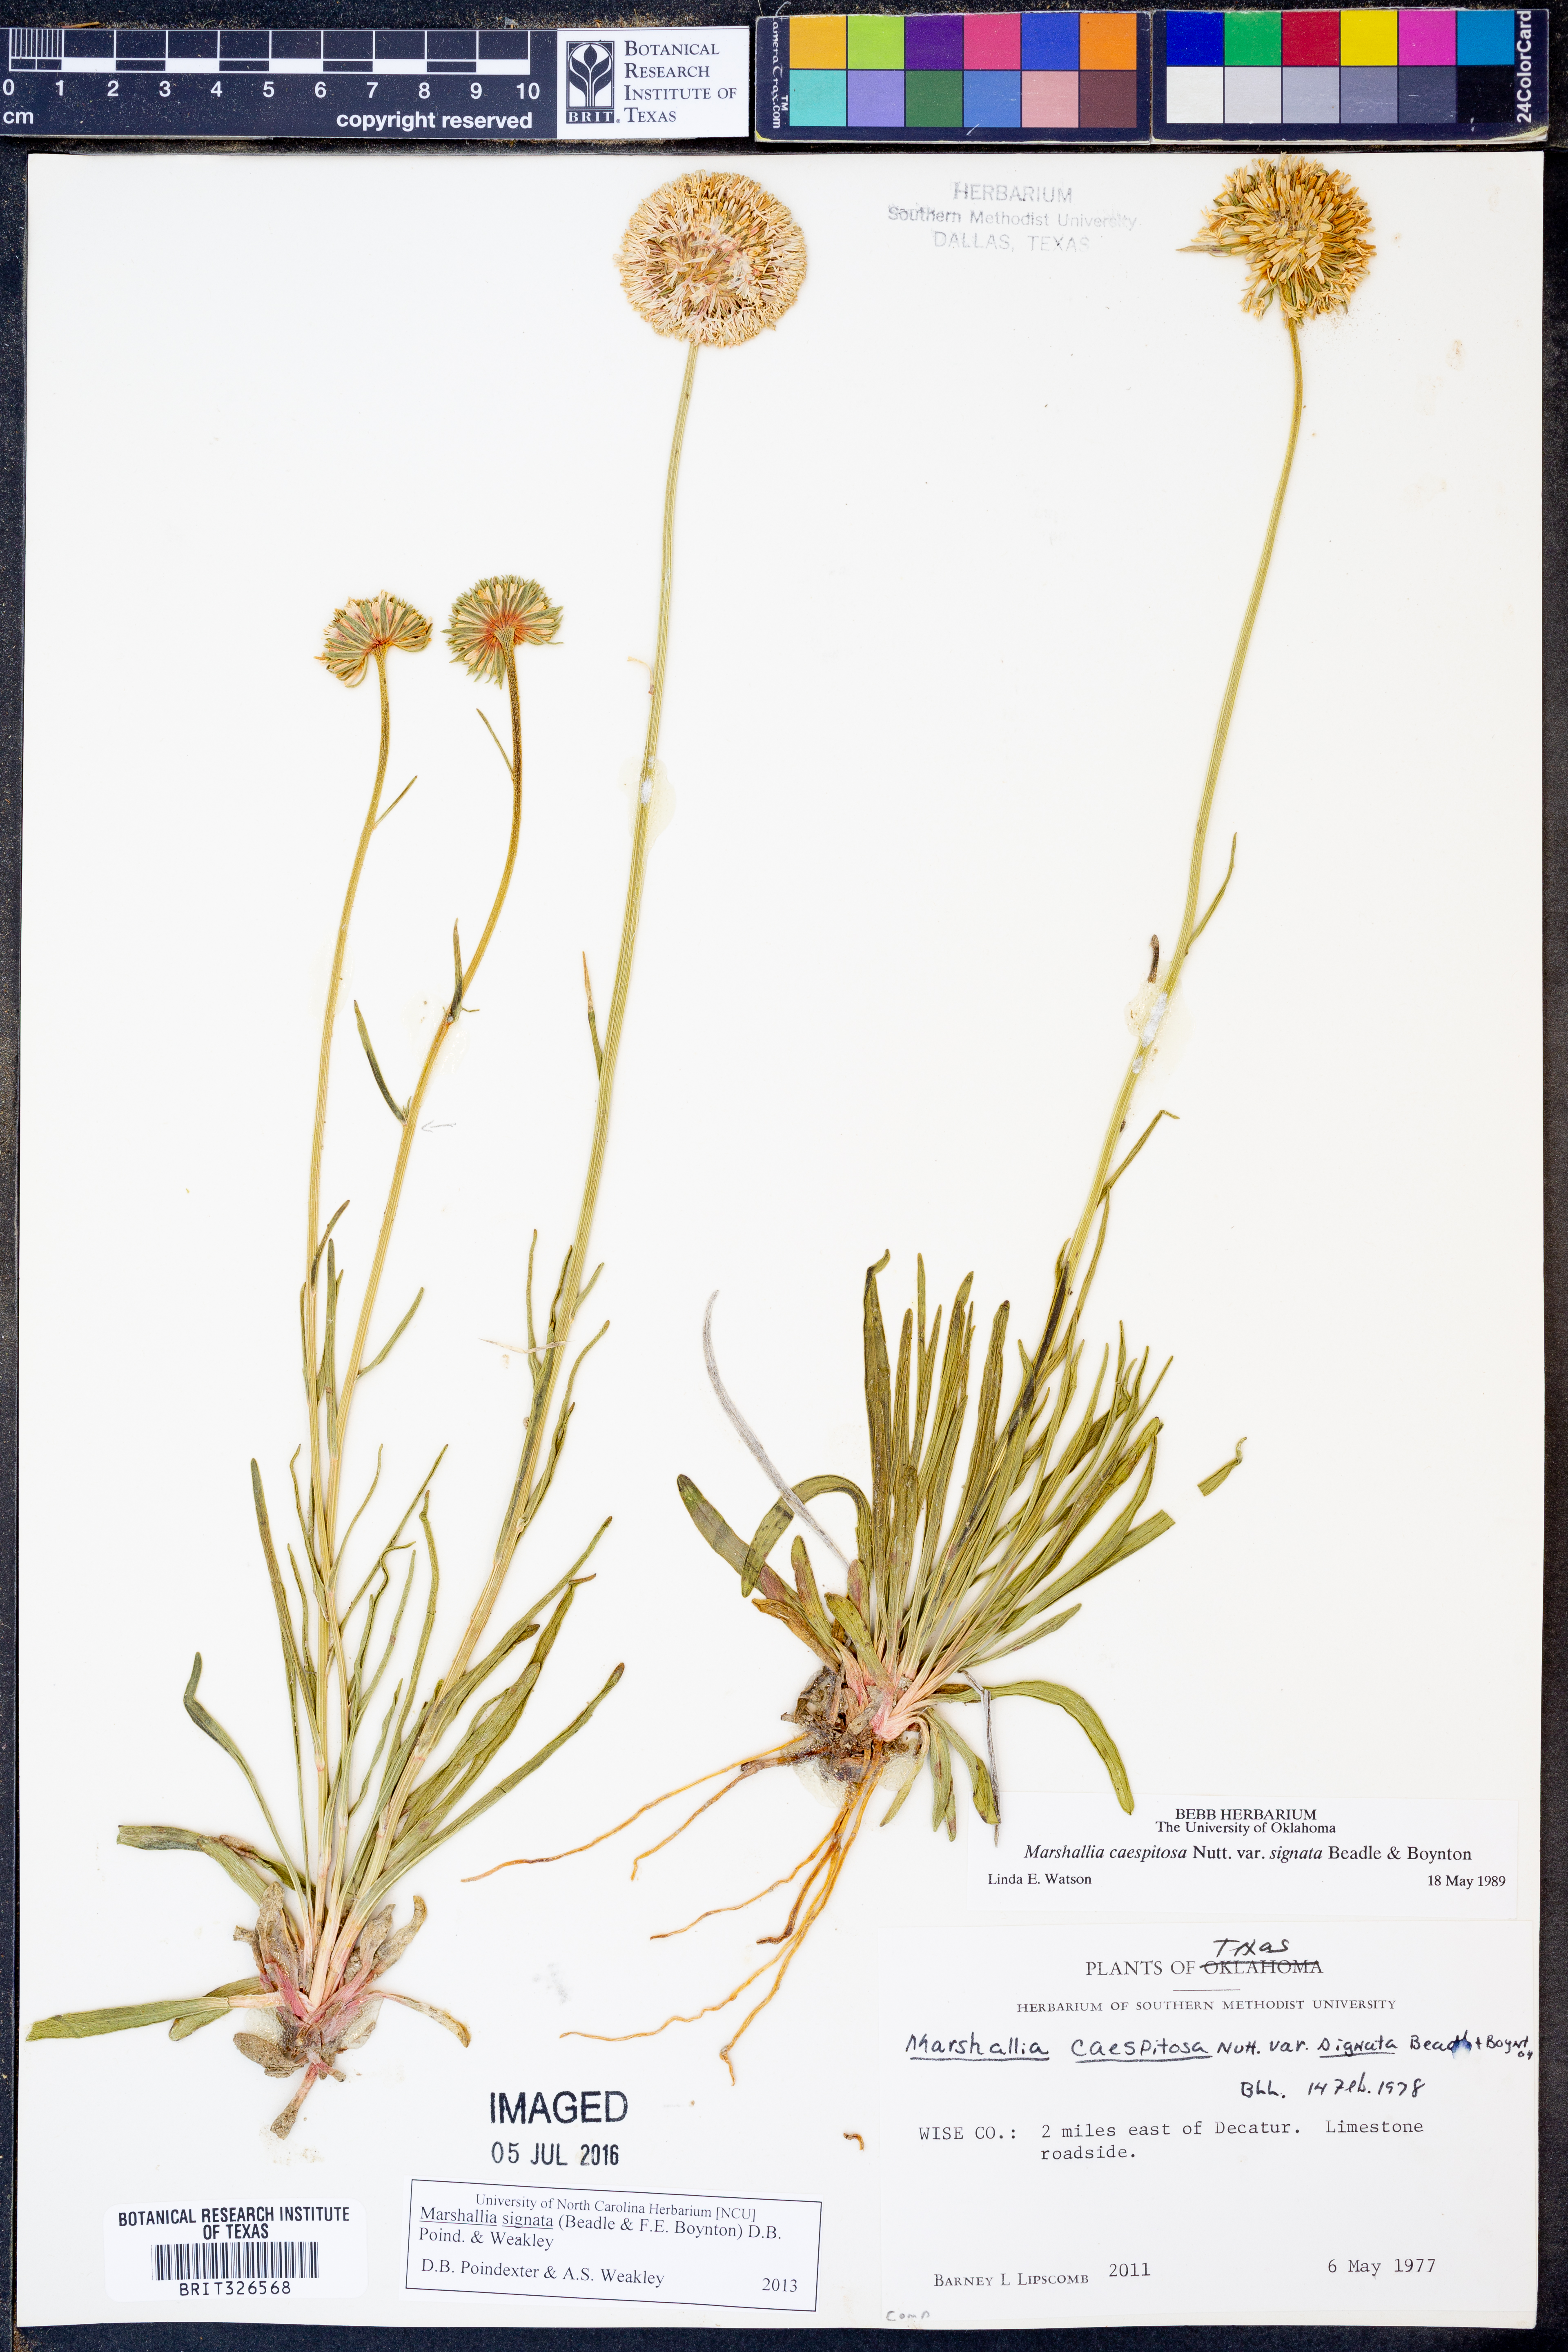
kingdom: Plantae
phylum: Tracheophyta
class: Magnoliopsida
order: Asterales
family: Asteraceae
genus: Marshallia
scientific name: Marshallia
